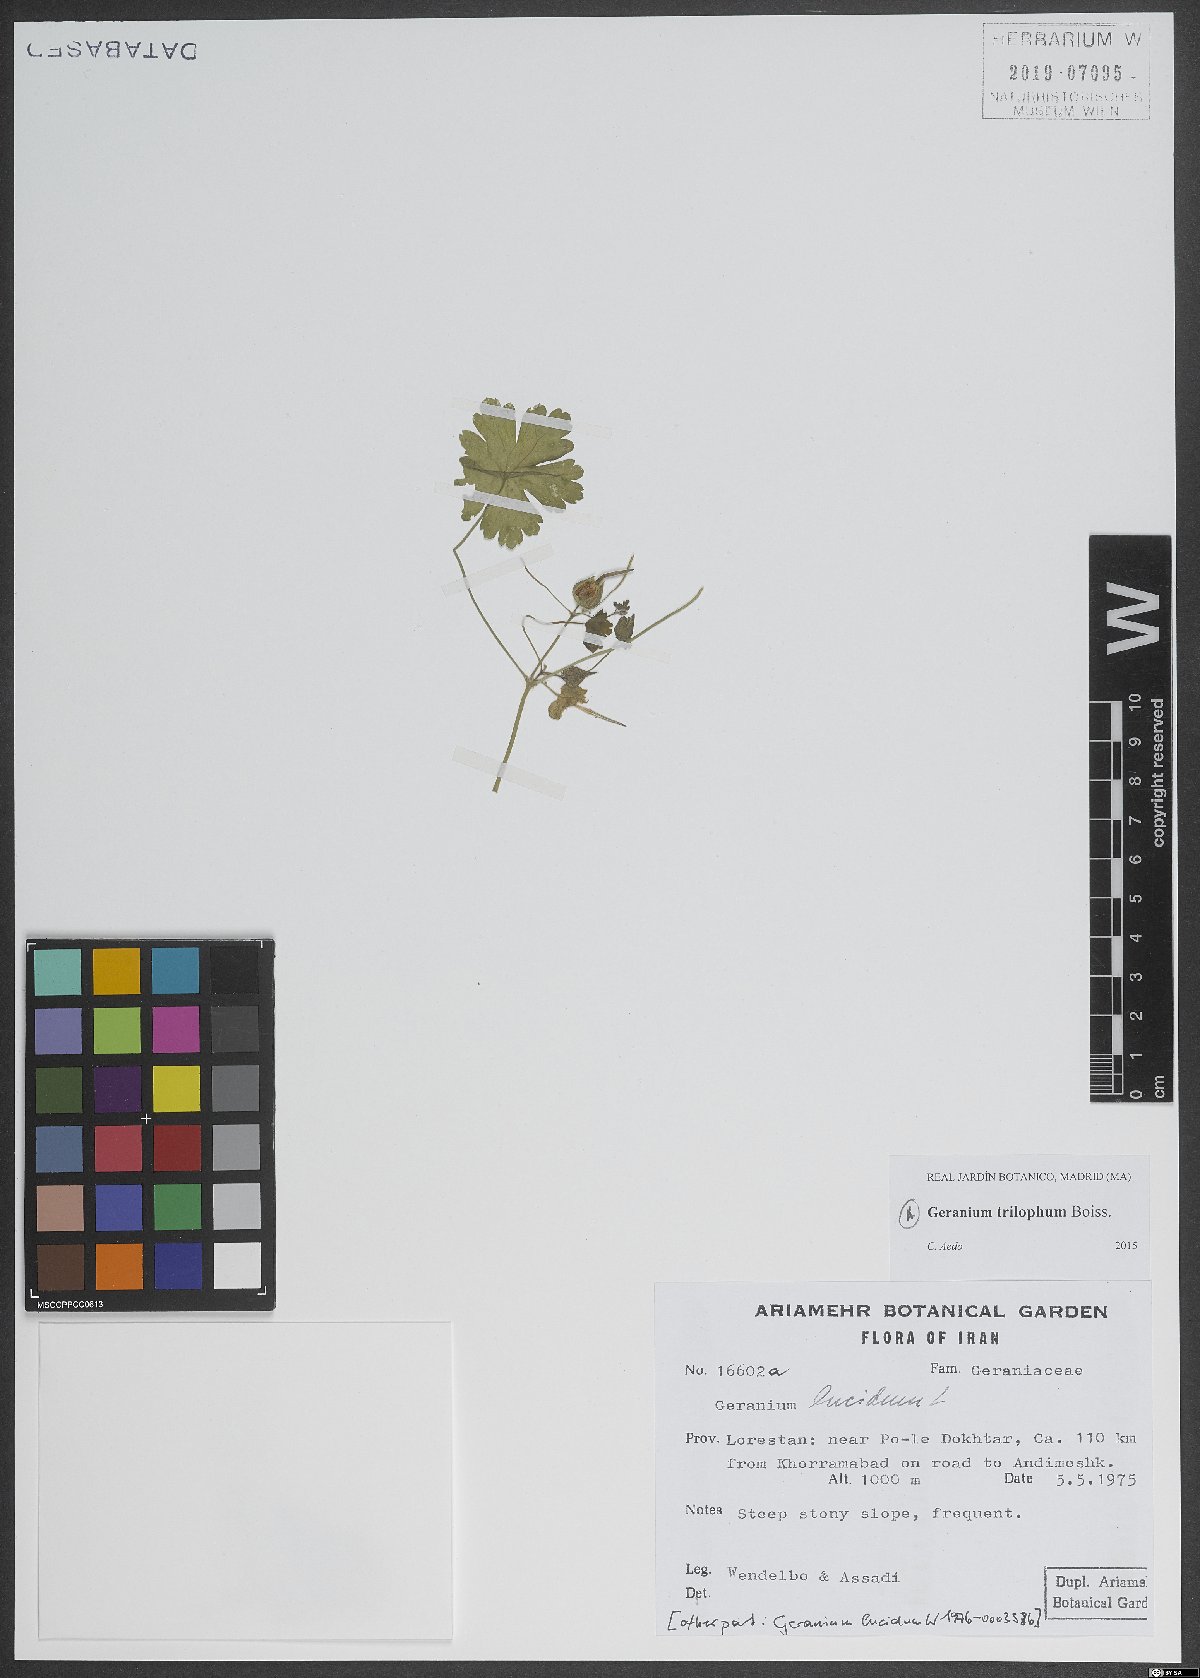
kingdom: Plantae
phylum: Tracheophyta
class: Magnoliopsida
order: Geraniales
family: Geraniaceae
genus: Geranium
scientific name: Geranium trilophum
